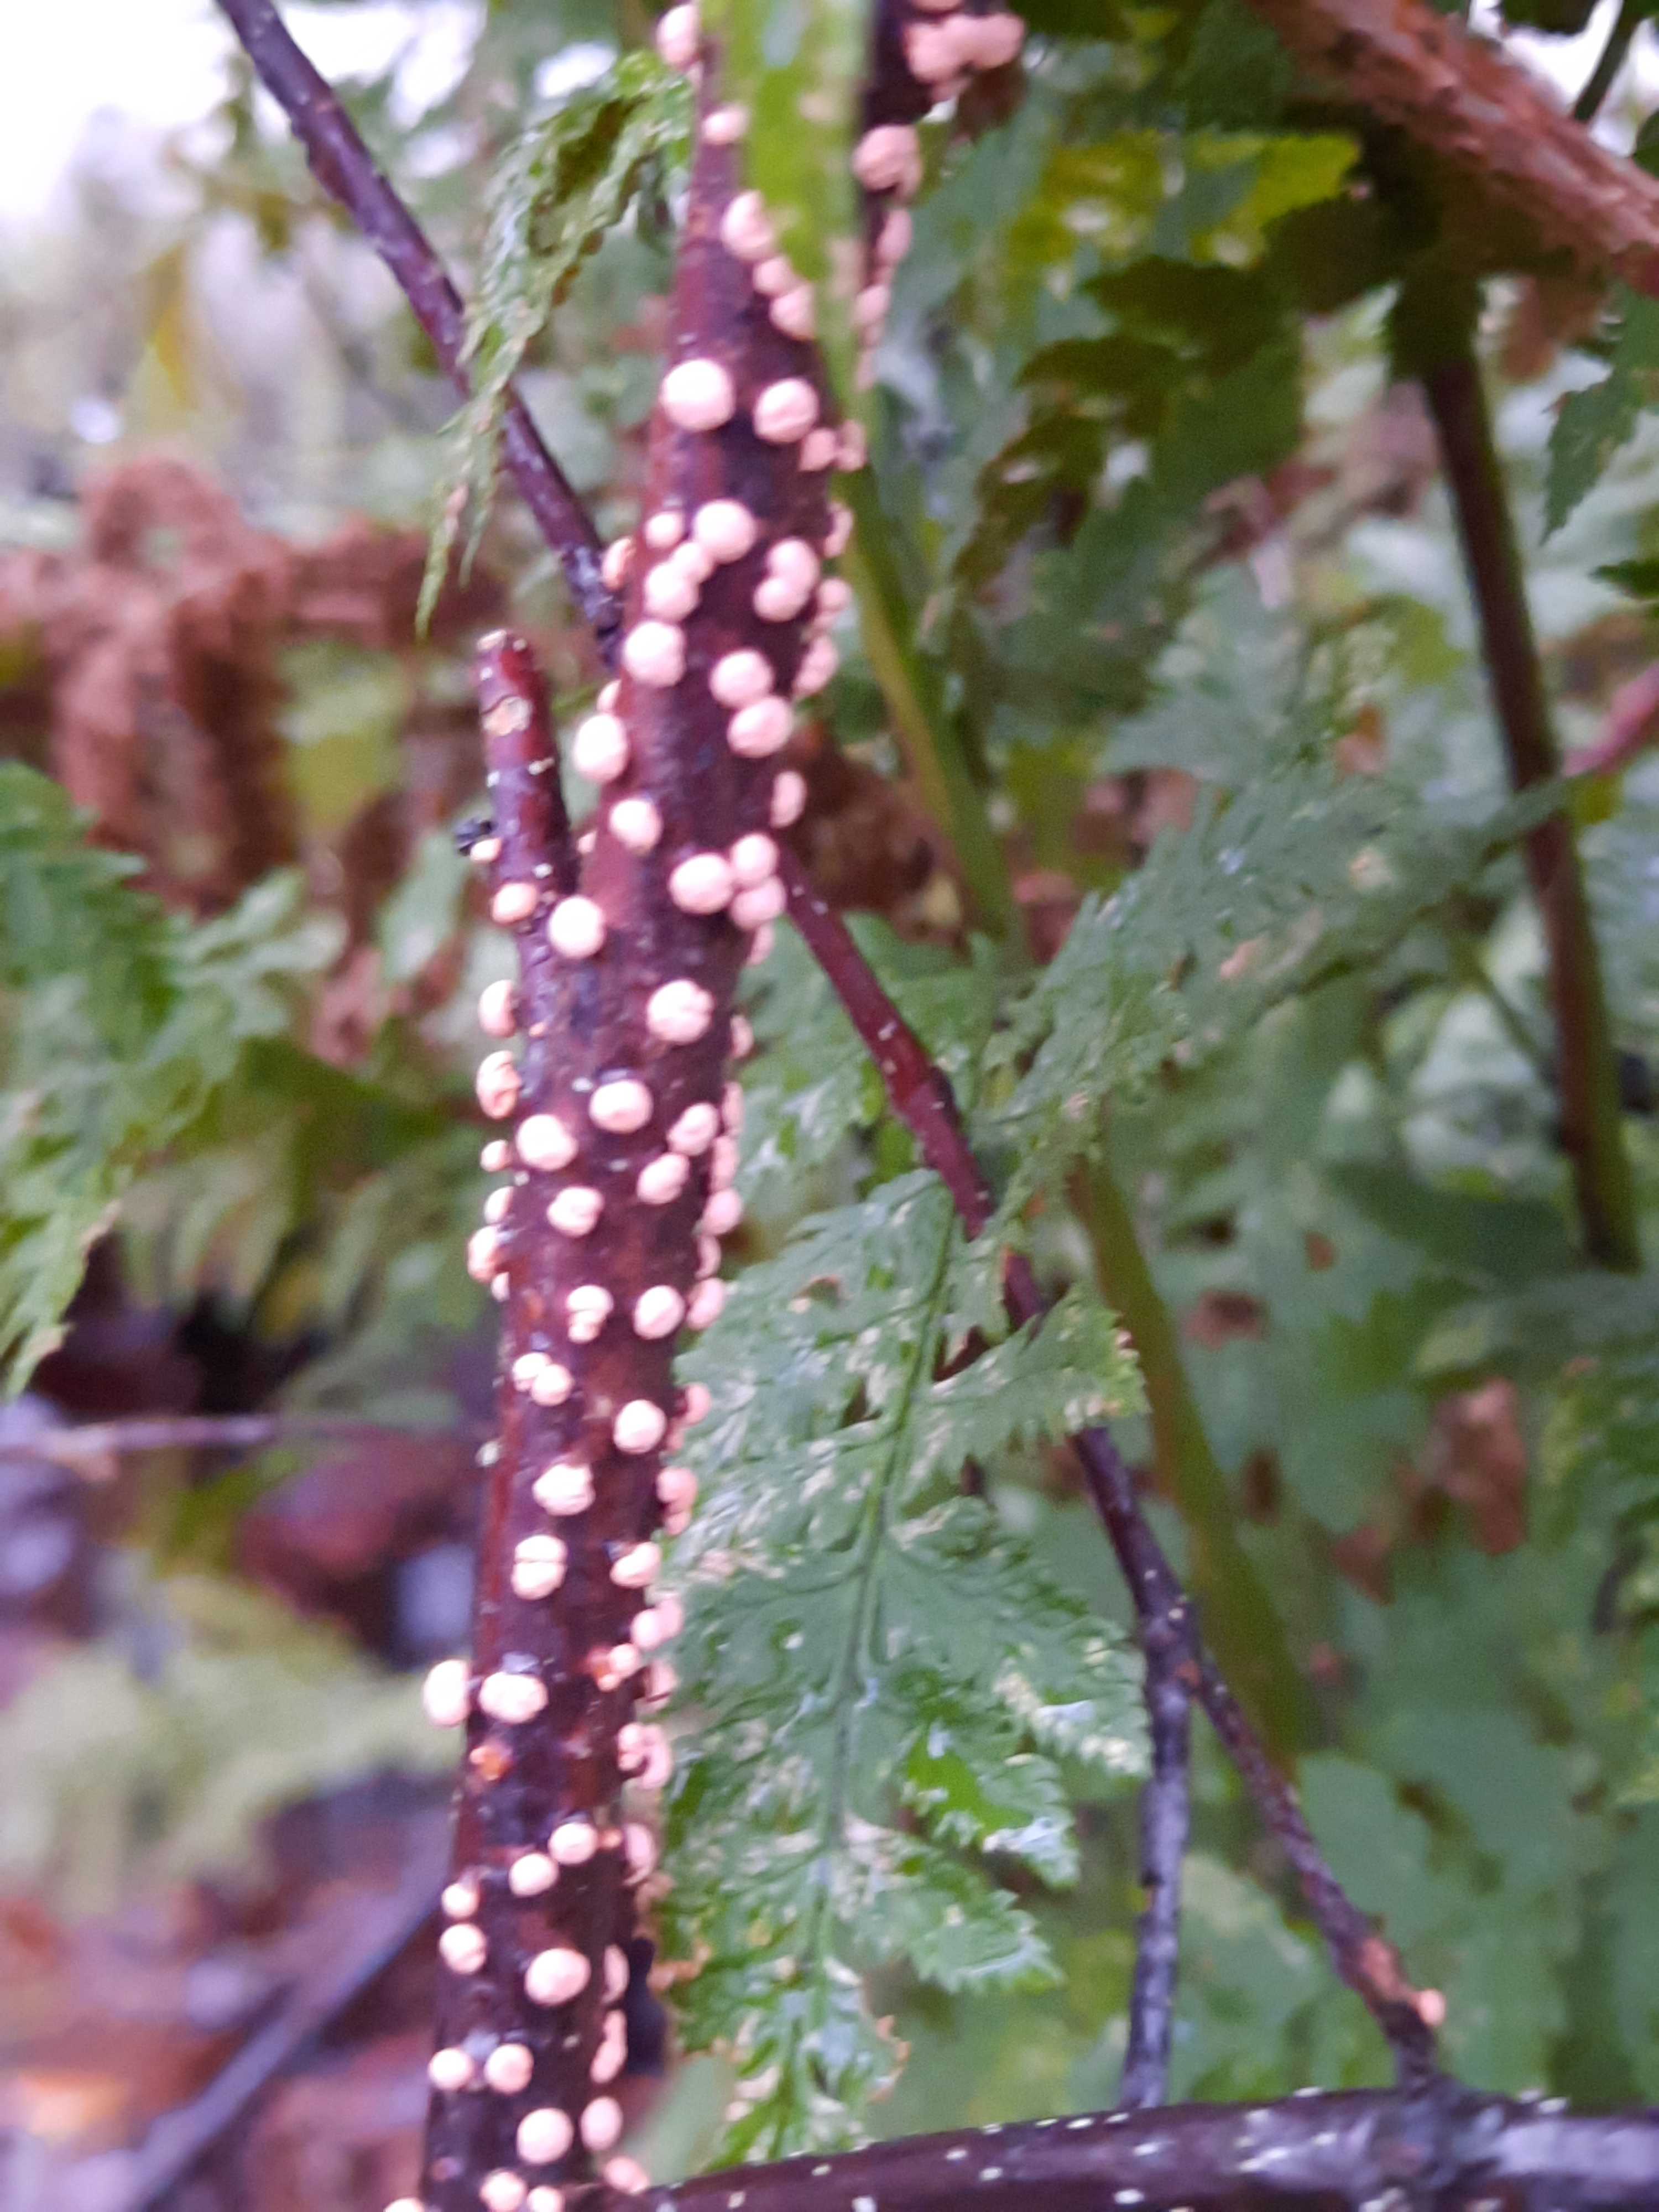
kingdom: Fungi
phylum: Ascomycota
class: Sordariomycetes
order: Hypocreales
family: Nectriaceae
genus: Nectria
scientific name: Nectria cinnabarina
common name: almindelig cinnobersvamp
